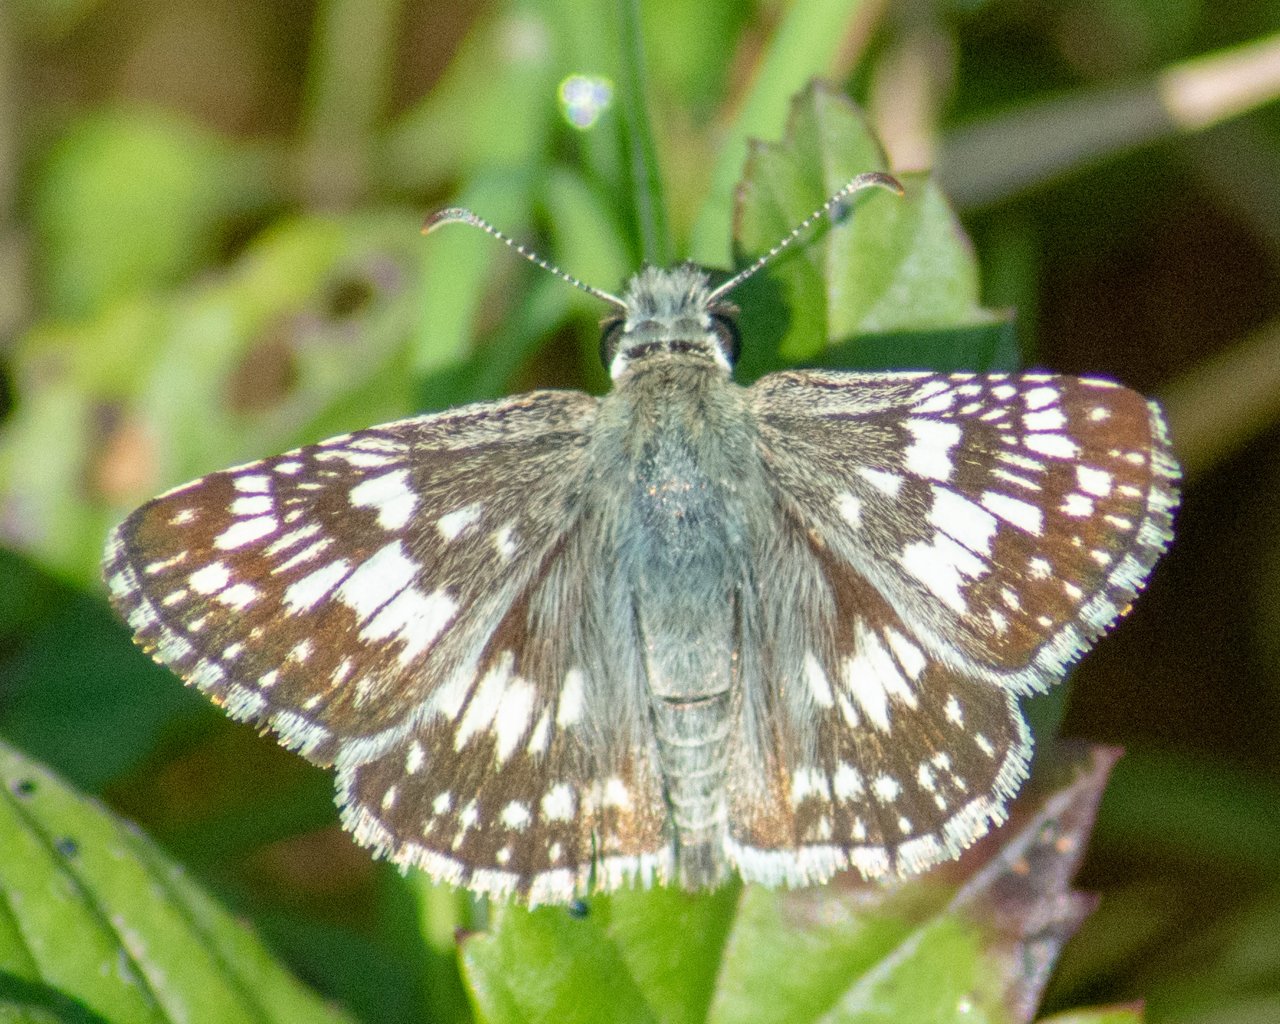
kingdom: Animalia
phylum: Arthropoda
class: Insecta
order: Lepidoptera
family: Hesperiidae
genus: Pyrgus
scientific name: Pyrgus communis
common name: White Checkered-Skipper
